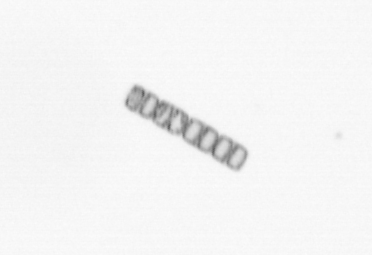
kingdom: Chromista
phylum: Ochrophyta
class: Bacillariophyceae
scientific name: Bacillariophyceae
